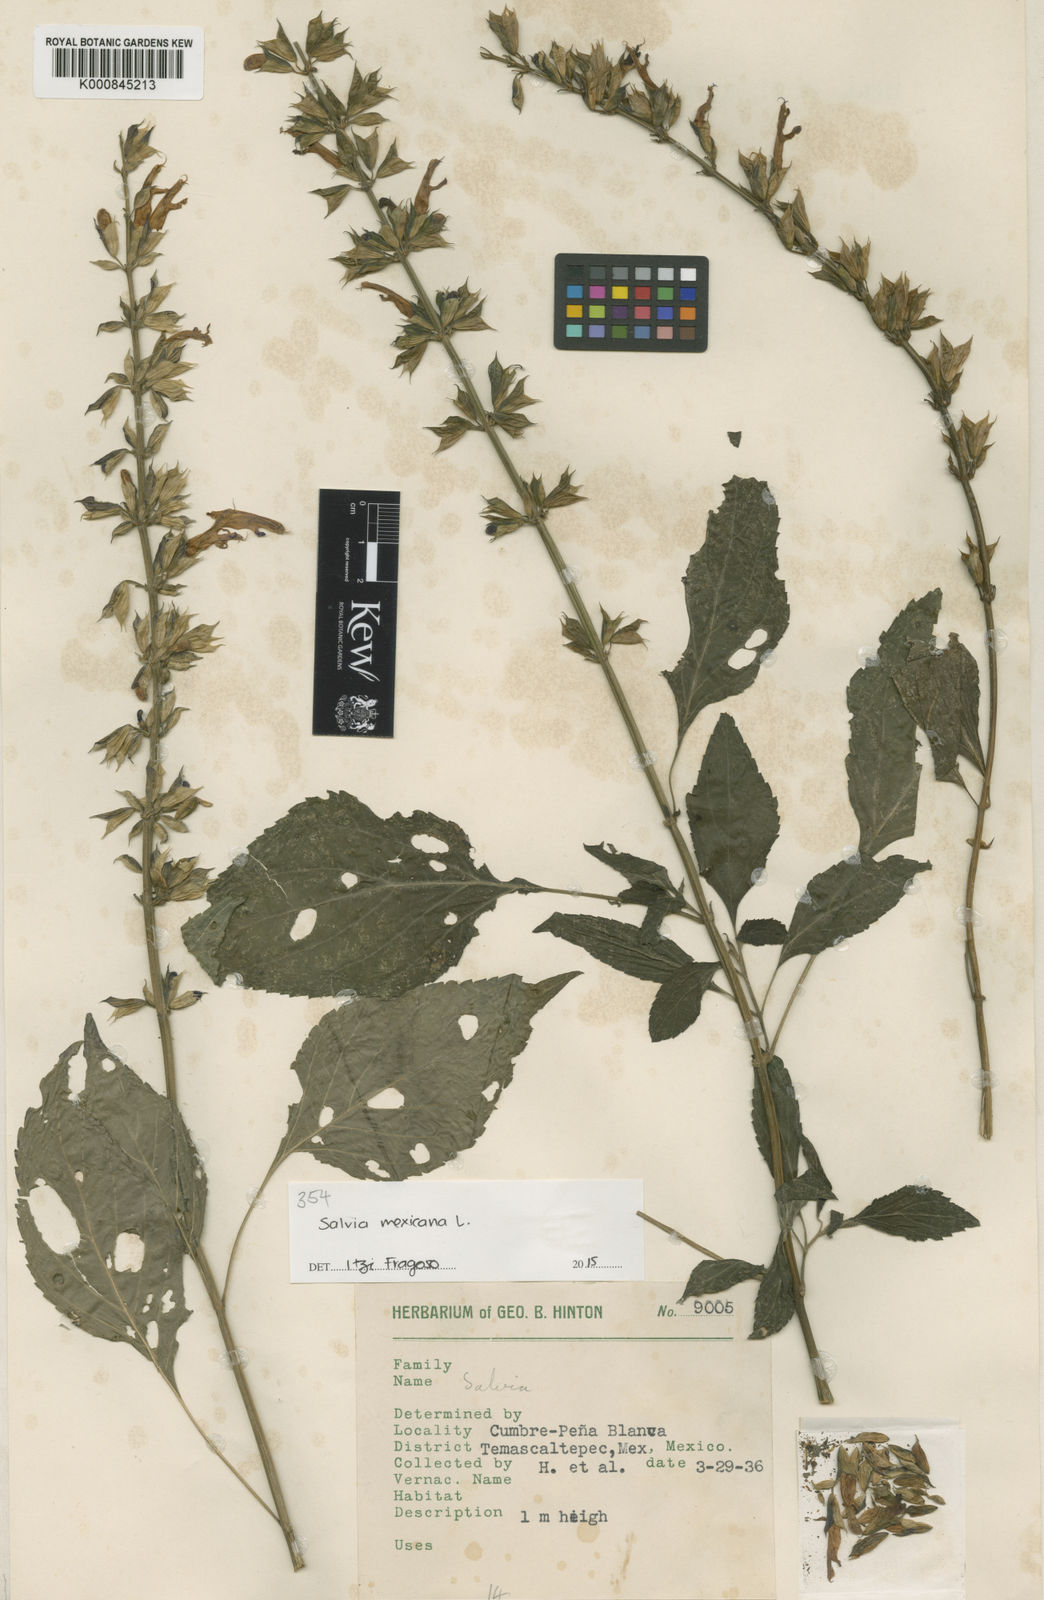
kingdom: Plantae
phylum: Tracheophyta
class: Magnoliopsida
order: Lamiales
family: Lamiaceae
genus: Salvia
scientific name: Salvia mexicana
